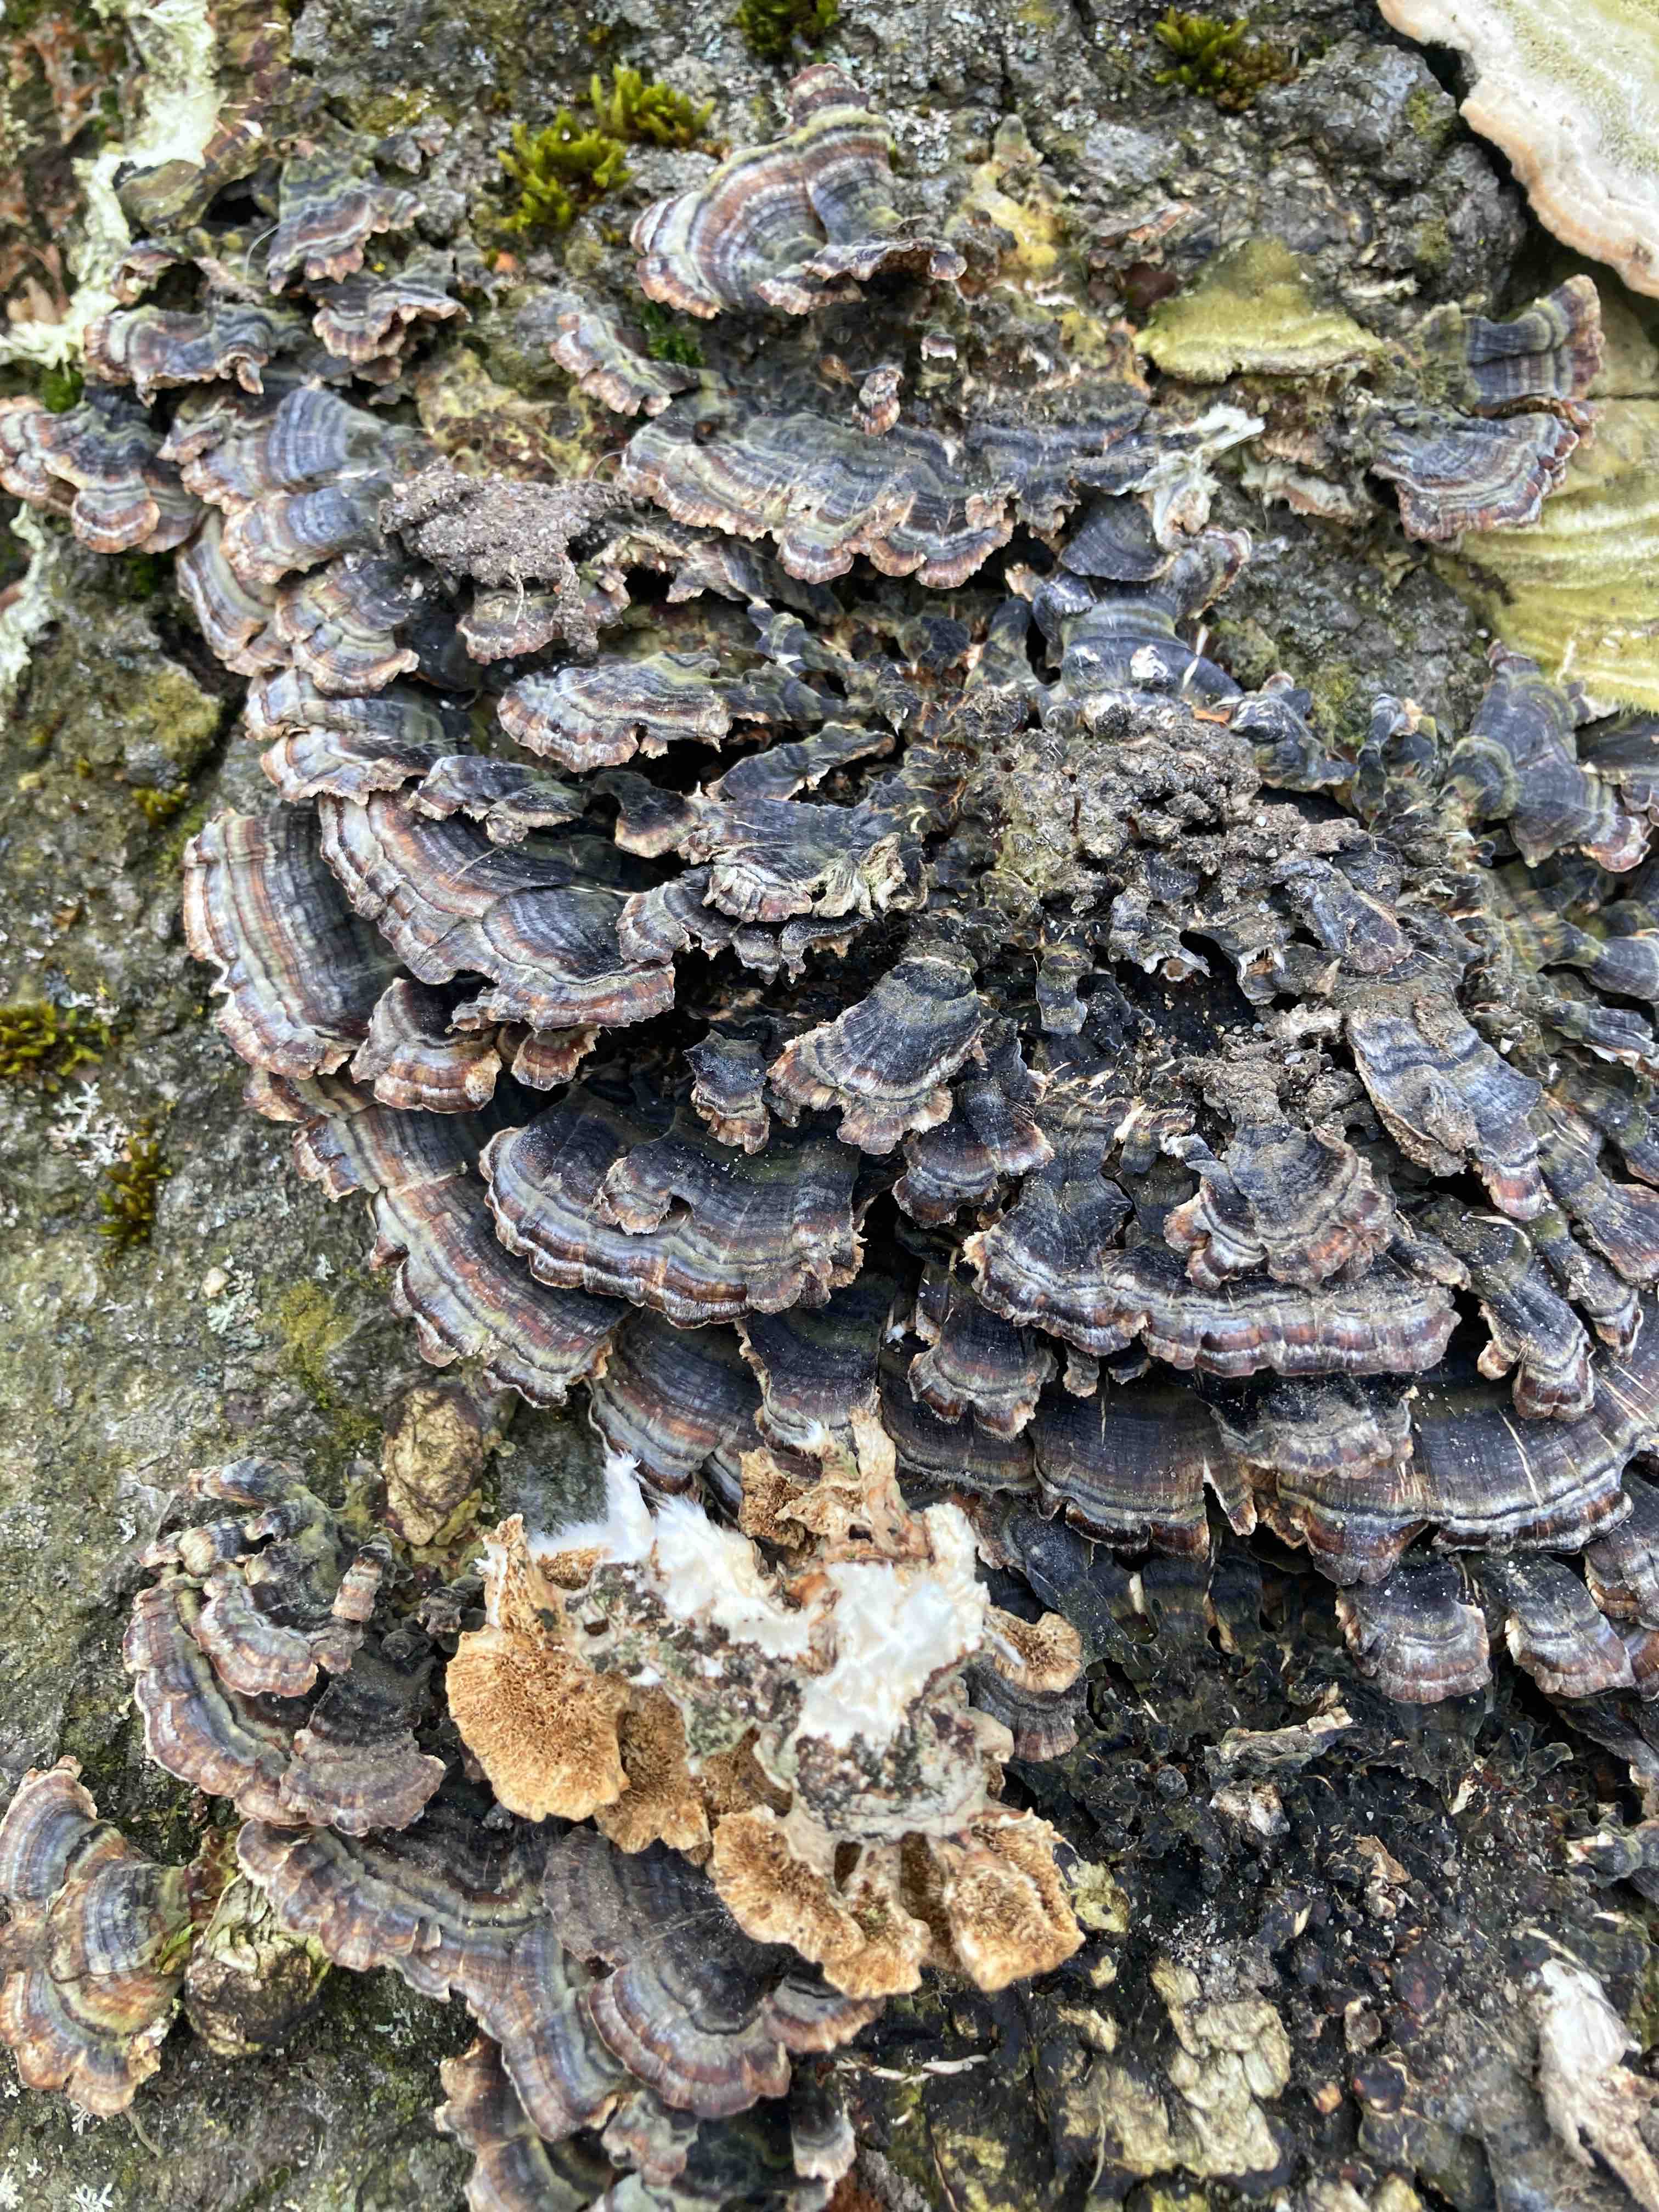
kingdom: Fungi
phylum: Basidiomycota
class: Agaricomycetes
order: Polyporales
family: Polyporaceae
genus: Trametes
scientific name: Trametes versicolor
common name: broget læderporesvamp
